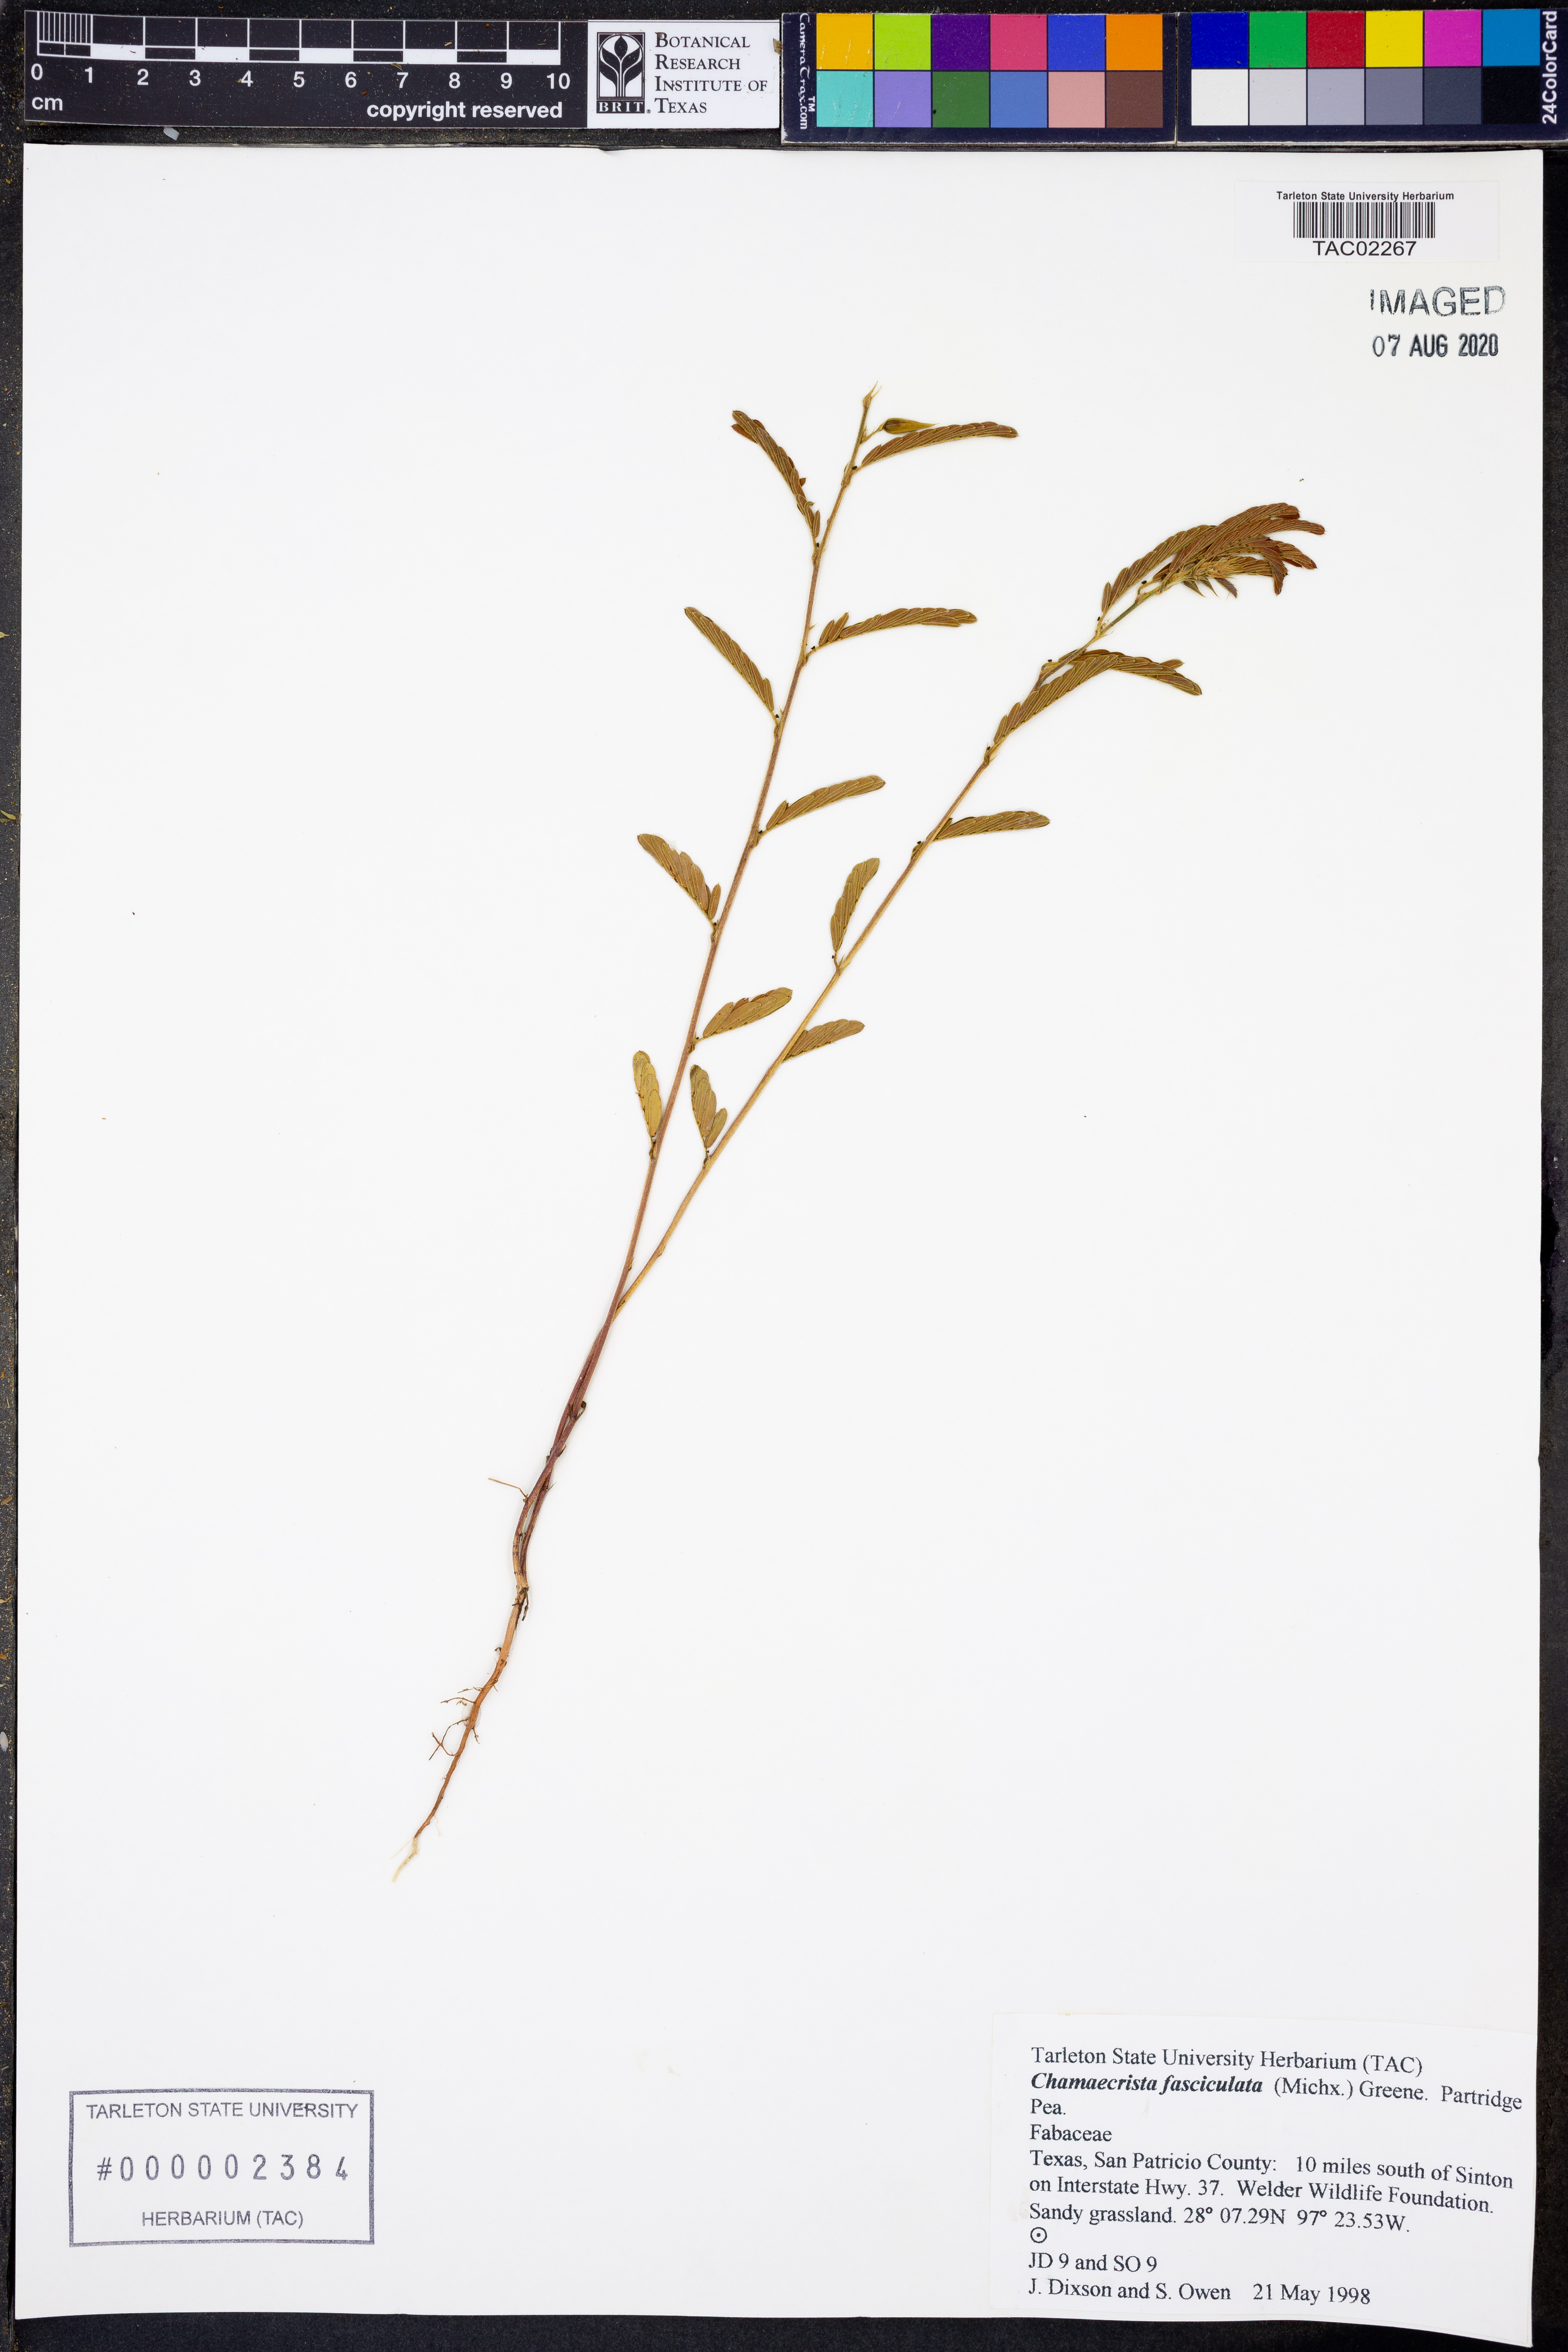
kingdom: Plantae
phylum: Tracheophyta
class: Magnoliopsida
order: Fabales
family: Fabaceae
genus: Chamaecrista
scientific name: Chamaecrista fasciculata
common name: Golden cassia
